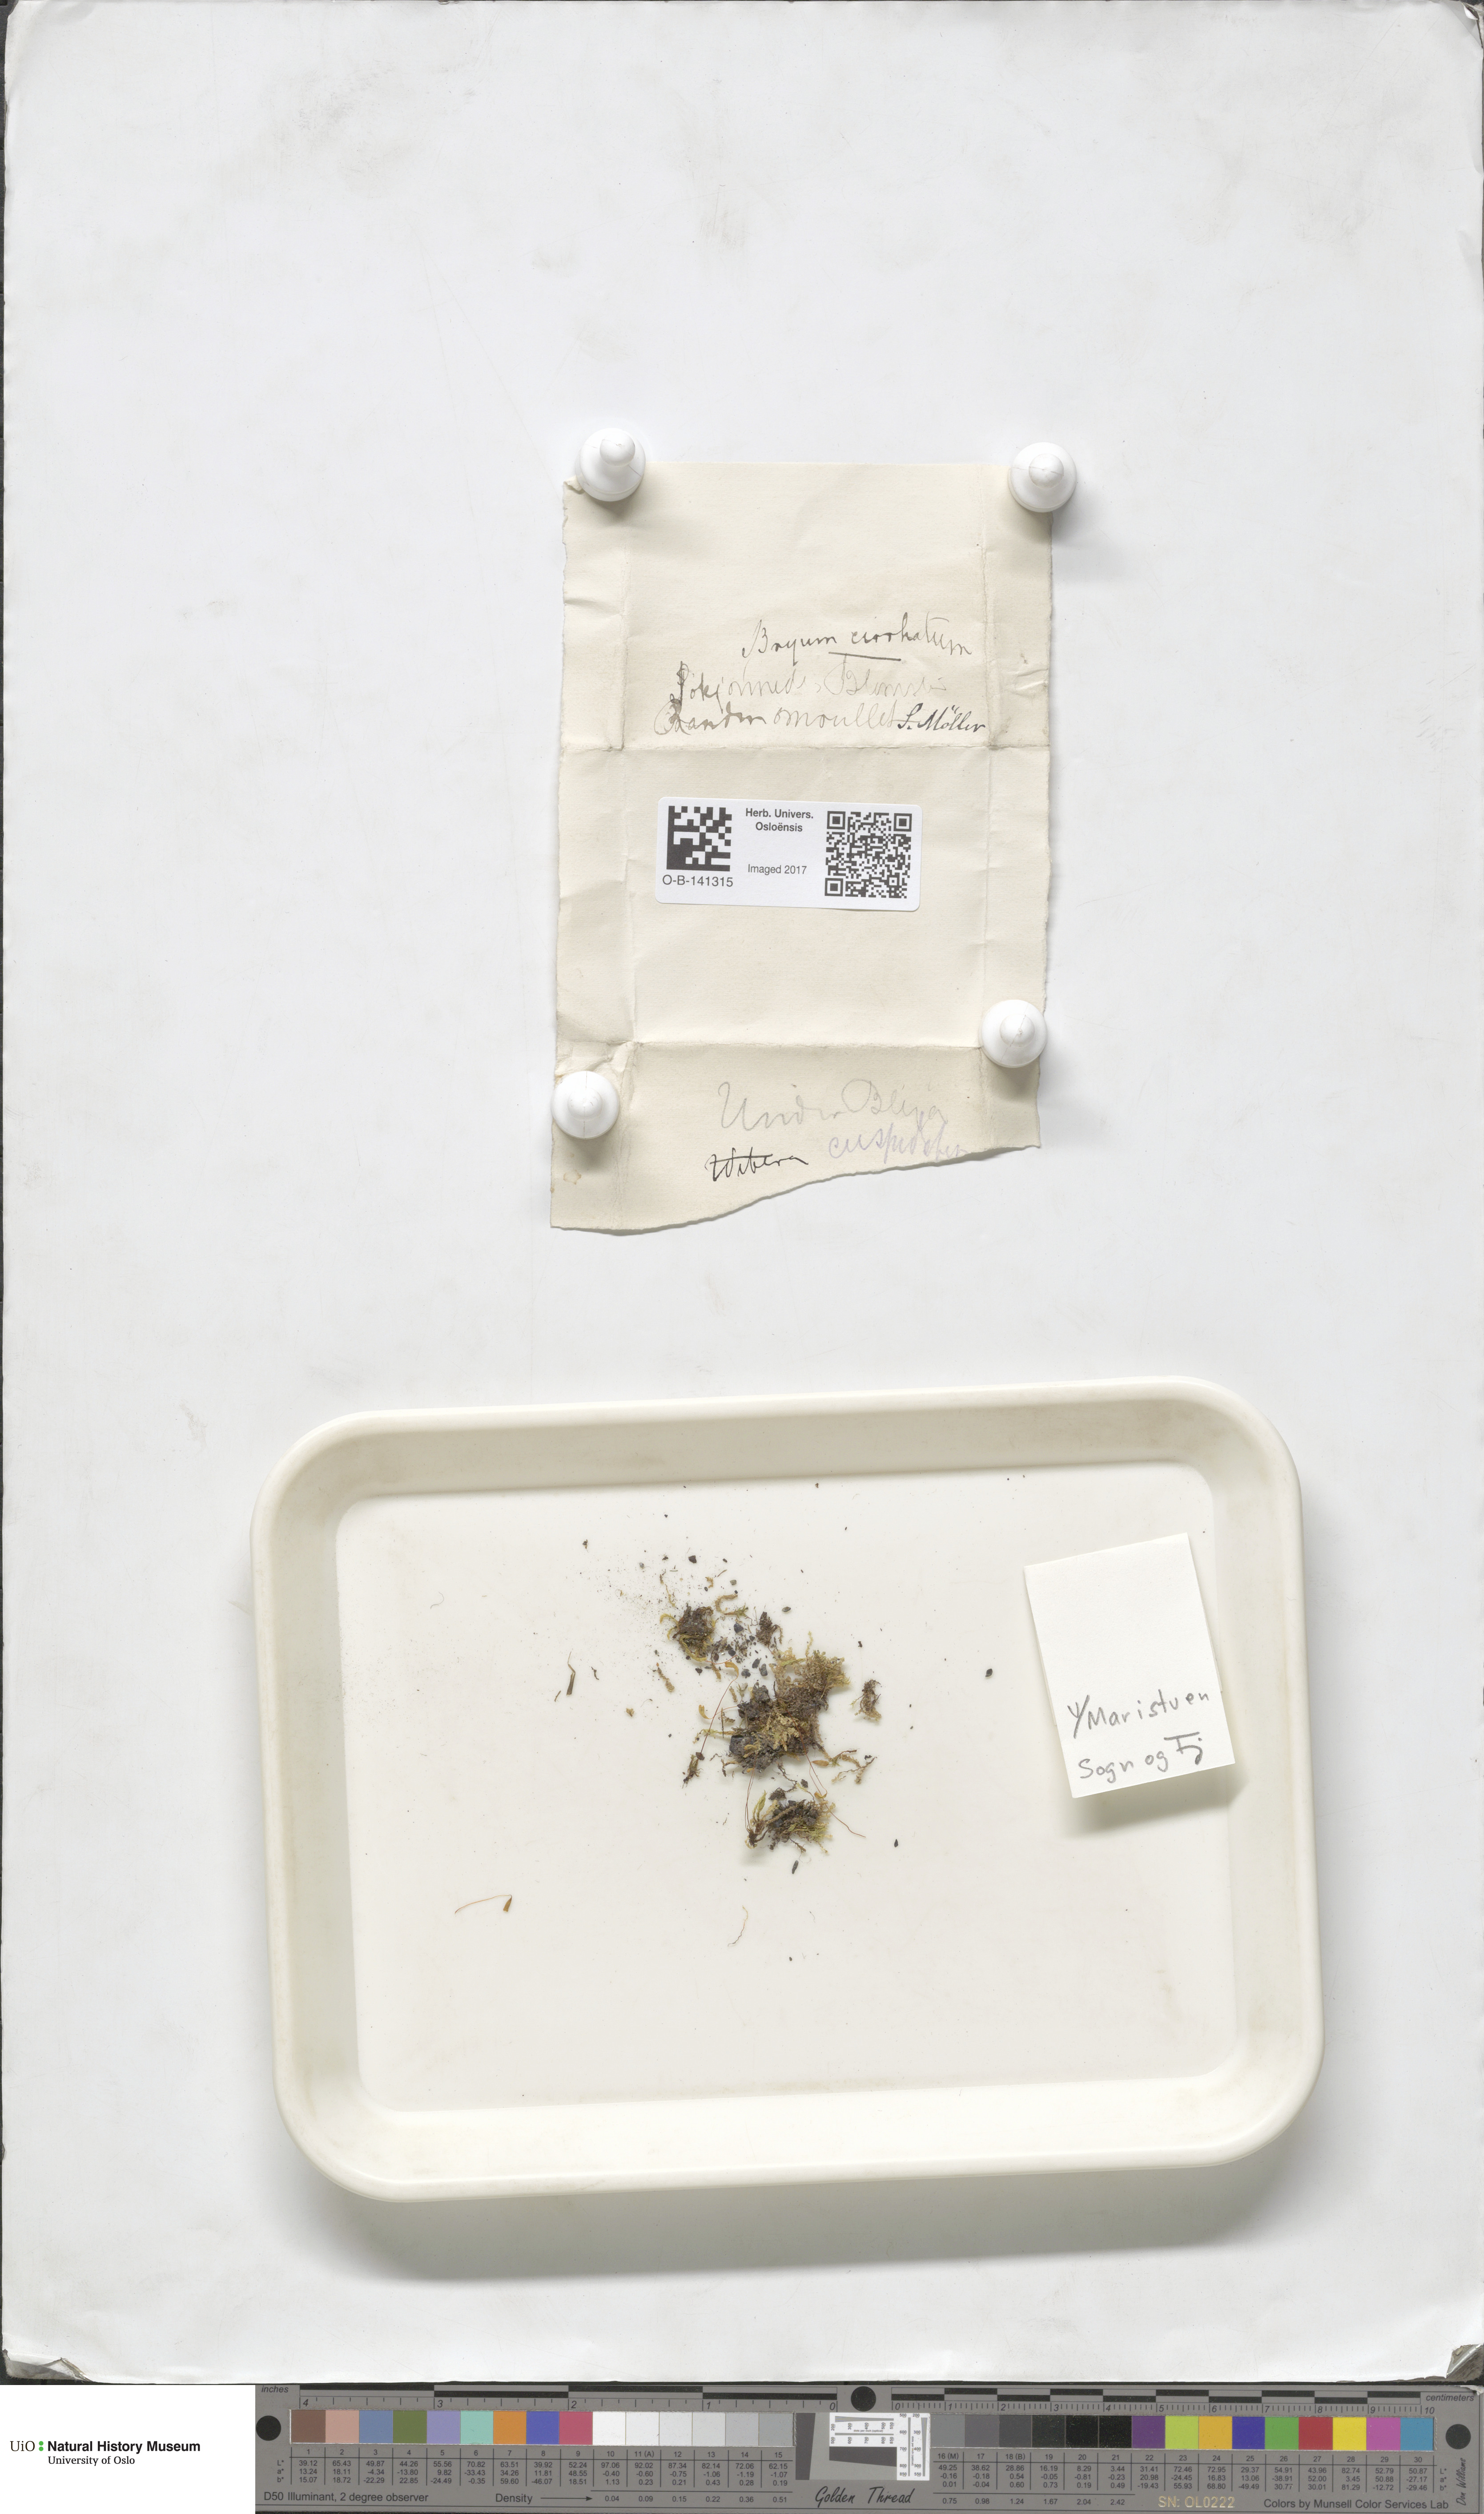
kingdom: Plantae
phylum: Bryophyta
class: Bryopsida
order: Bryales
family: Bryaceae
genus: Ptychostomum
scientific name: Ptychostomum pallescens
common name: Tall-clustered thread-moss
